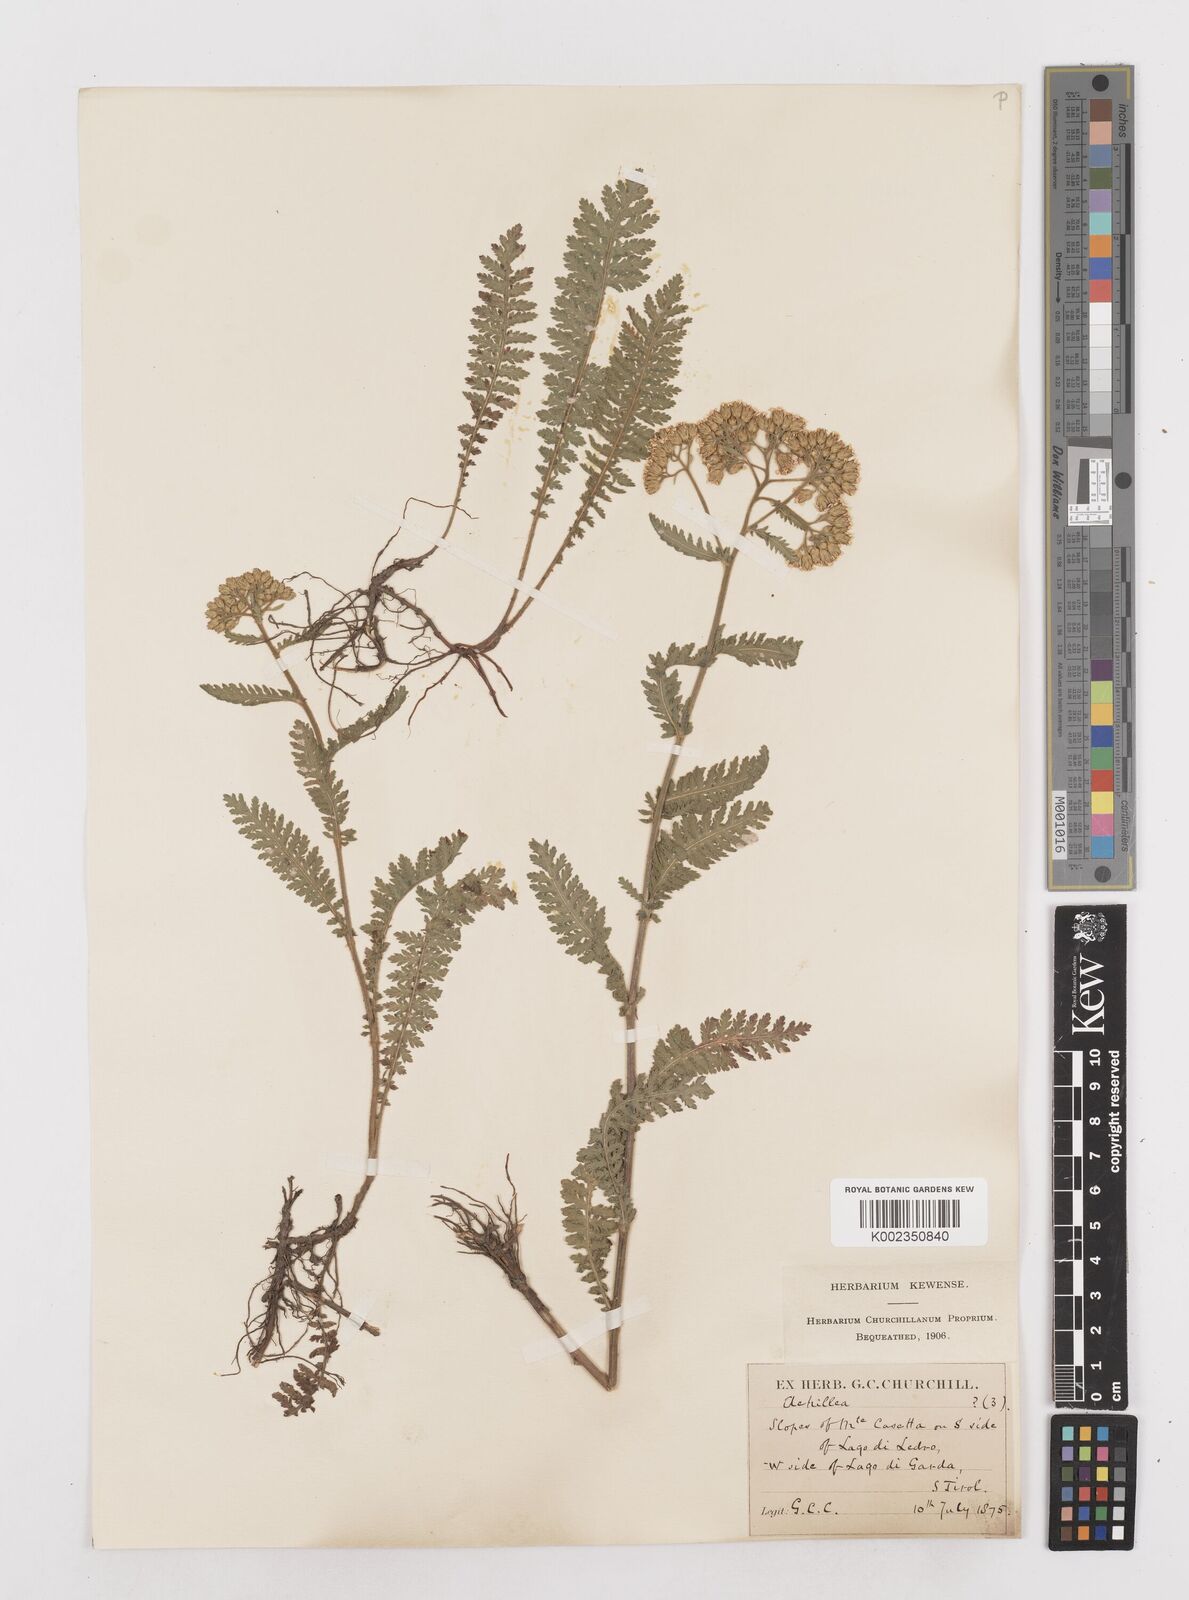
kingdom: Plantae
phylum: Tracheophyta
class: Magnoliopsida
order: Asterales
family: Asteraceae
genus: Achillea
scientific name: Achillea distans
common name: Tall yarrow
